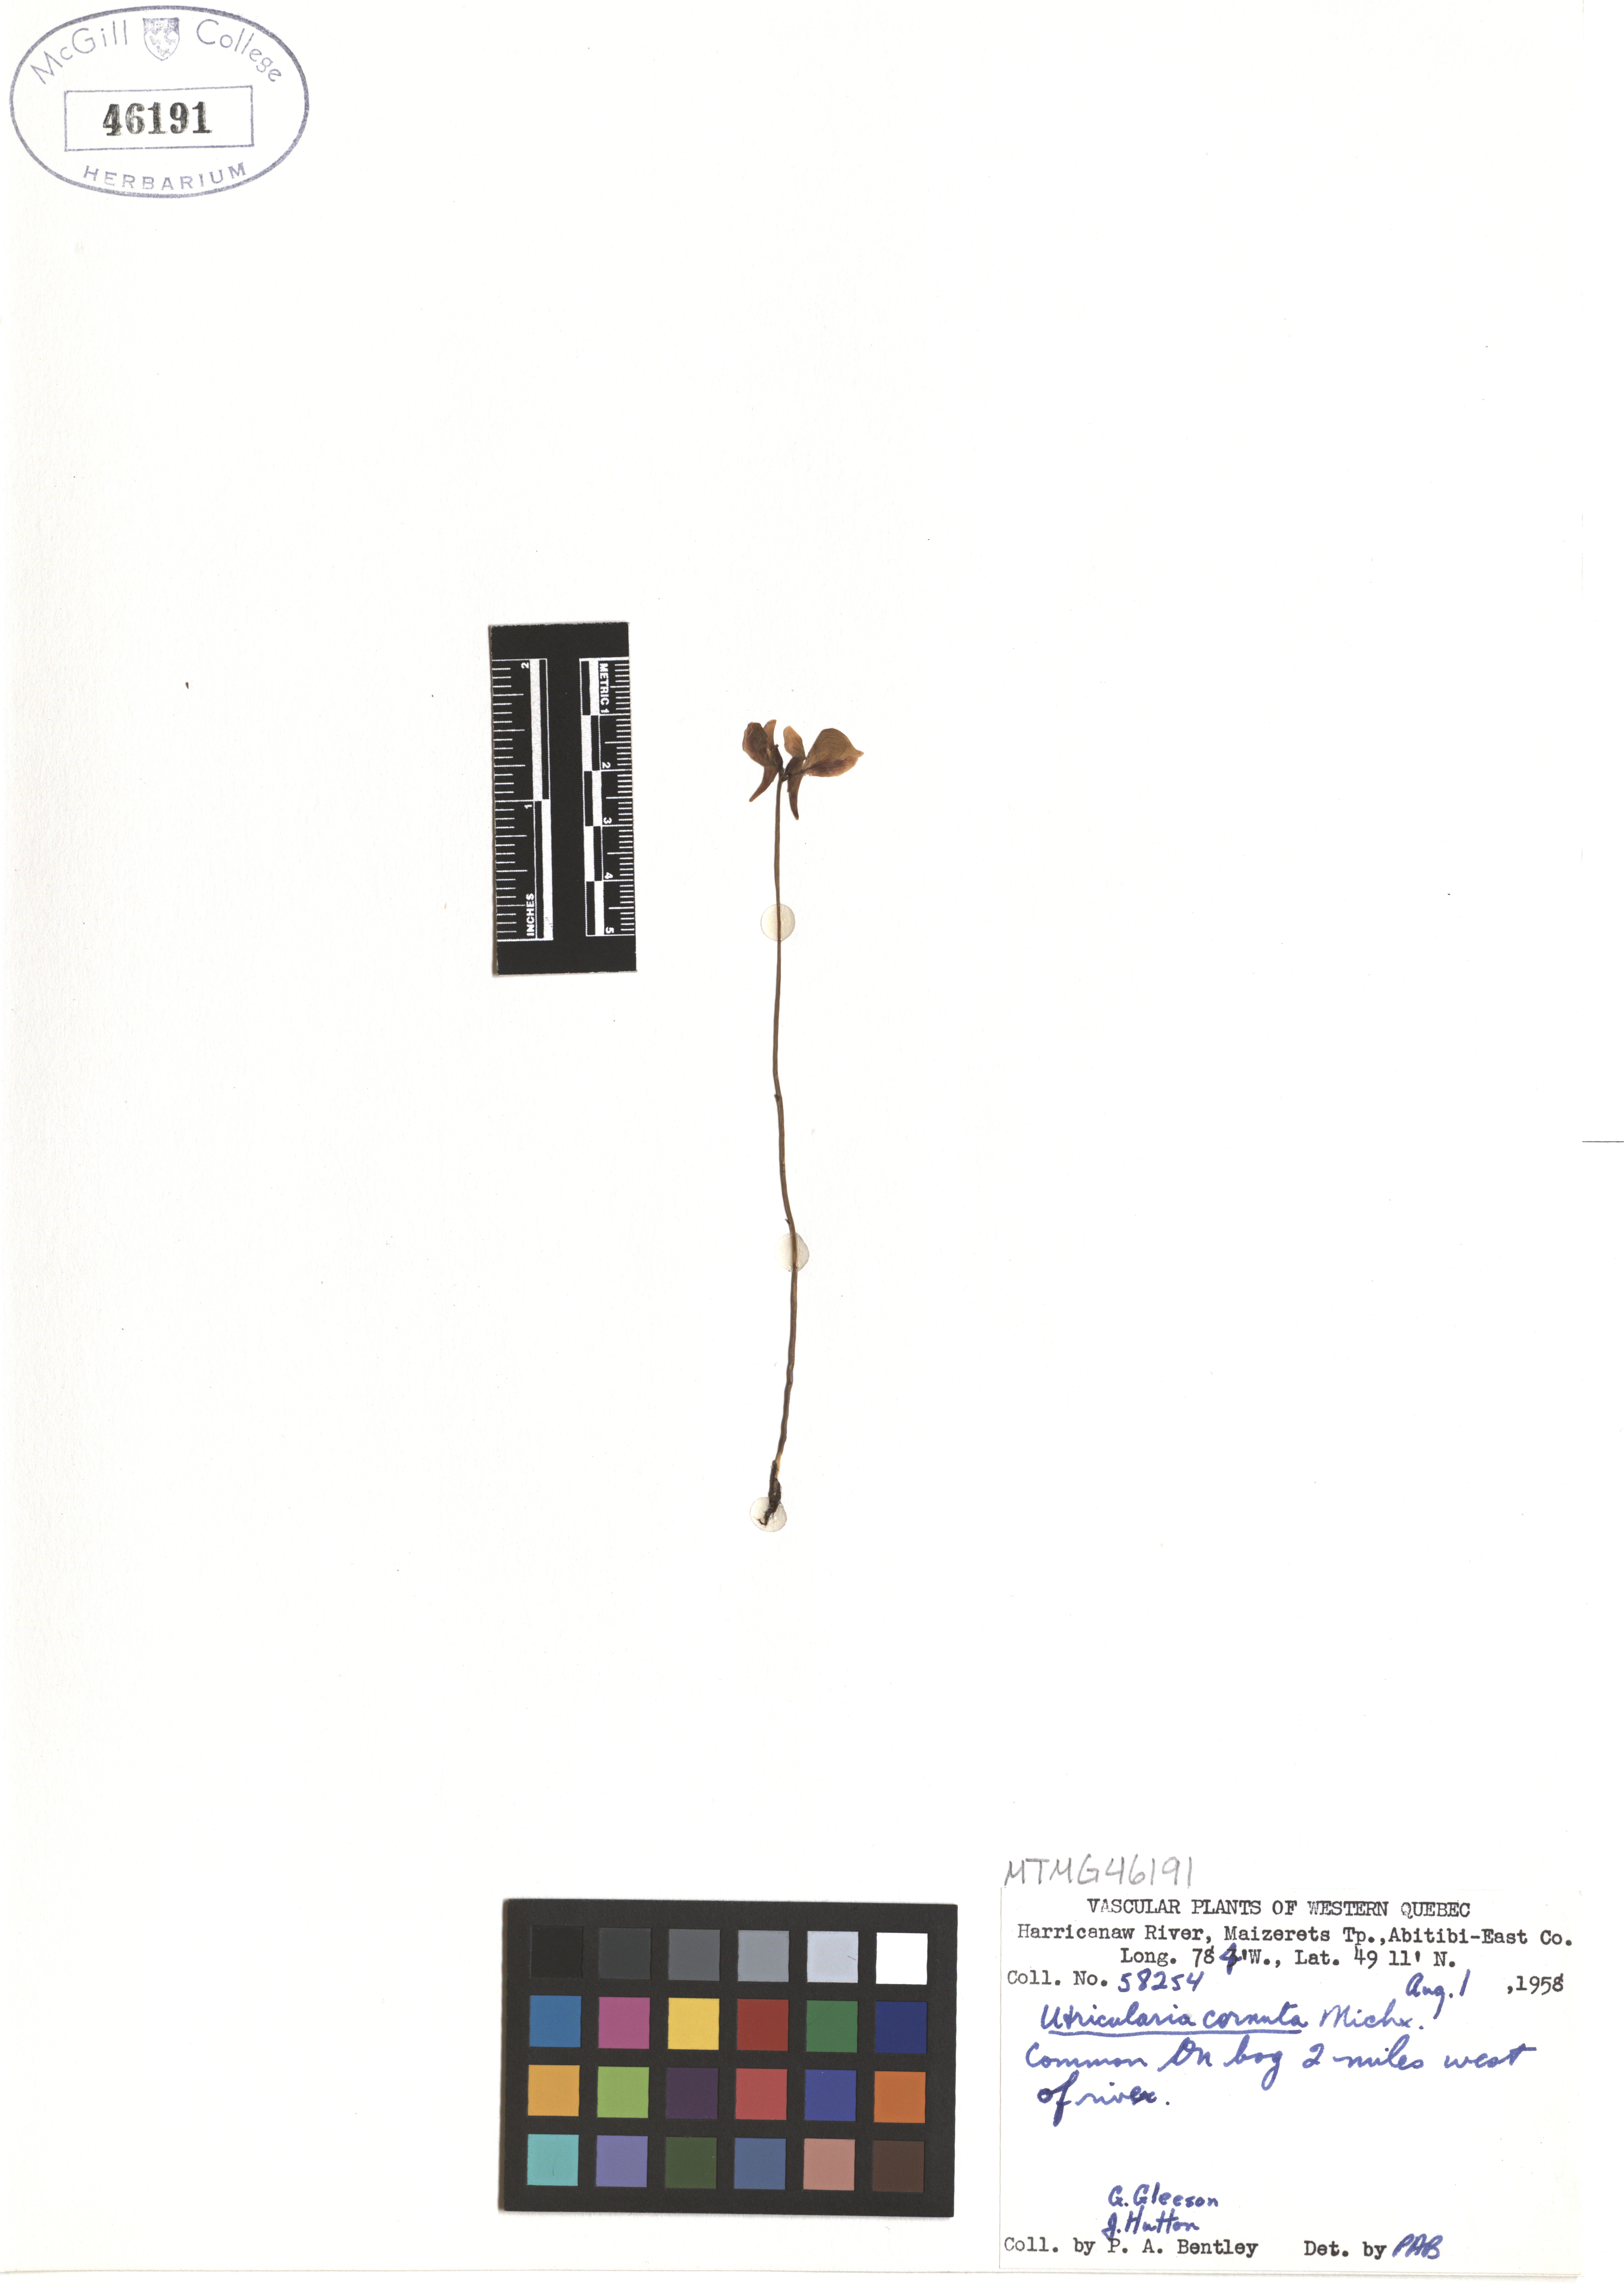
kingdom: Plantae
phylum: Tracheophyta
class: Magnoliopsida
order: Lamiales
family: Lentibulariaceae
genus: Utricularia
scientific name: Utricularia cornuta
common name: Horned bladderwort
